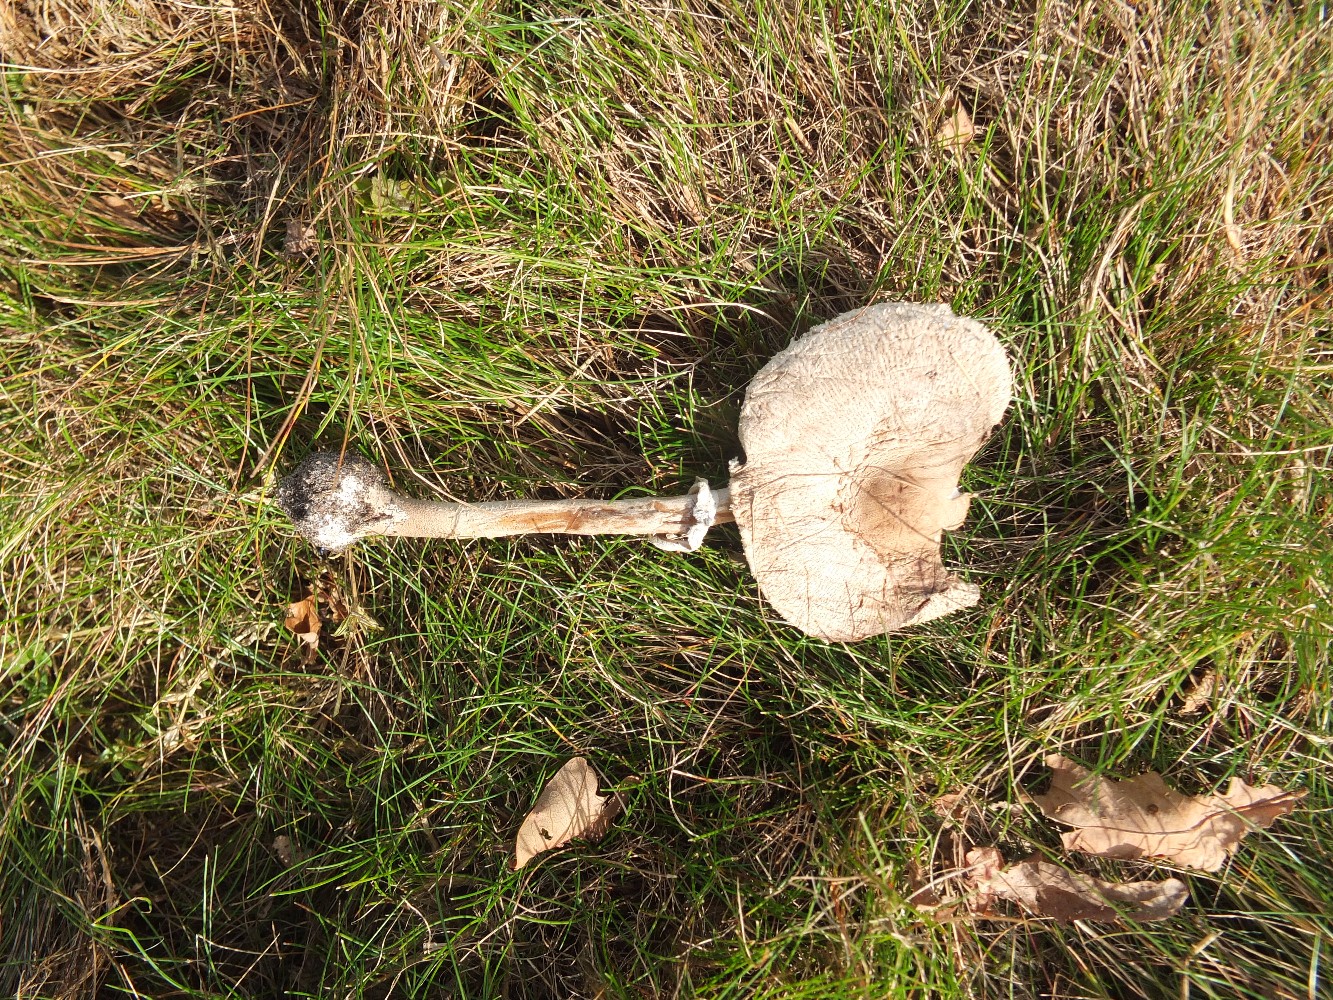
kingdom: Fungi
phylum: Basidiomycota
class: Agaricomycetes
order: Agaricales
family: Agaricaceae
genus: Macrolepiota
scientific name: Macrolepiota excoriata
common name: mark-kæmpeparasolhat
